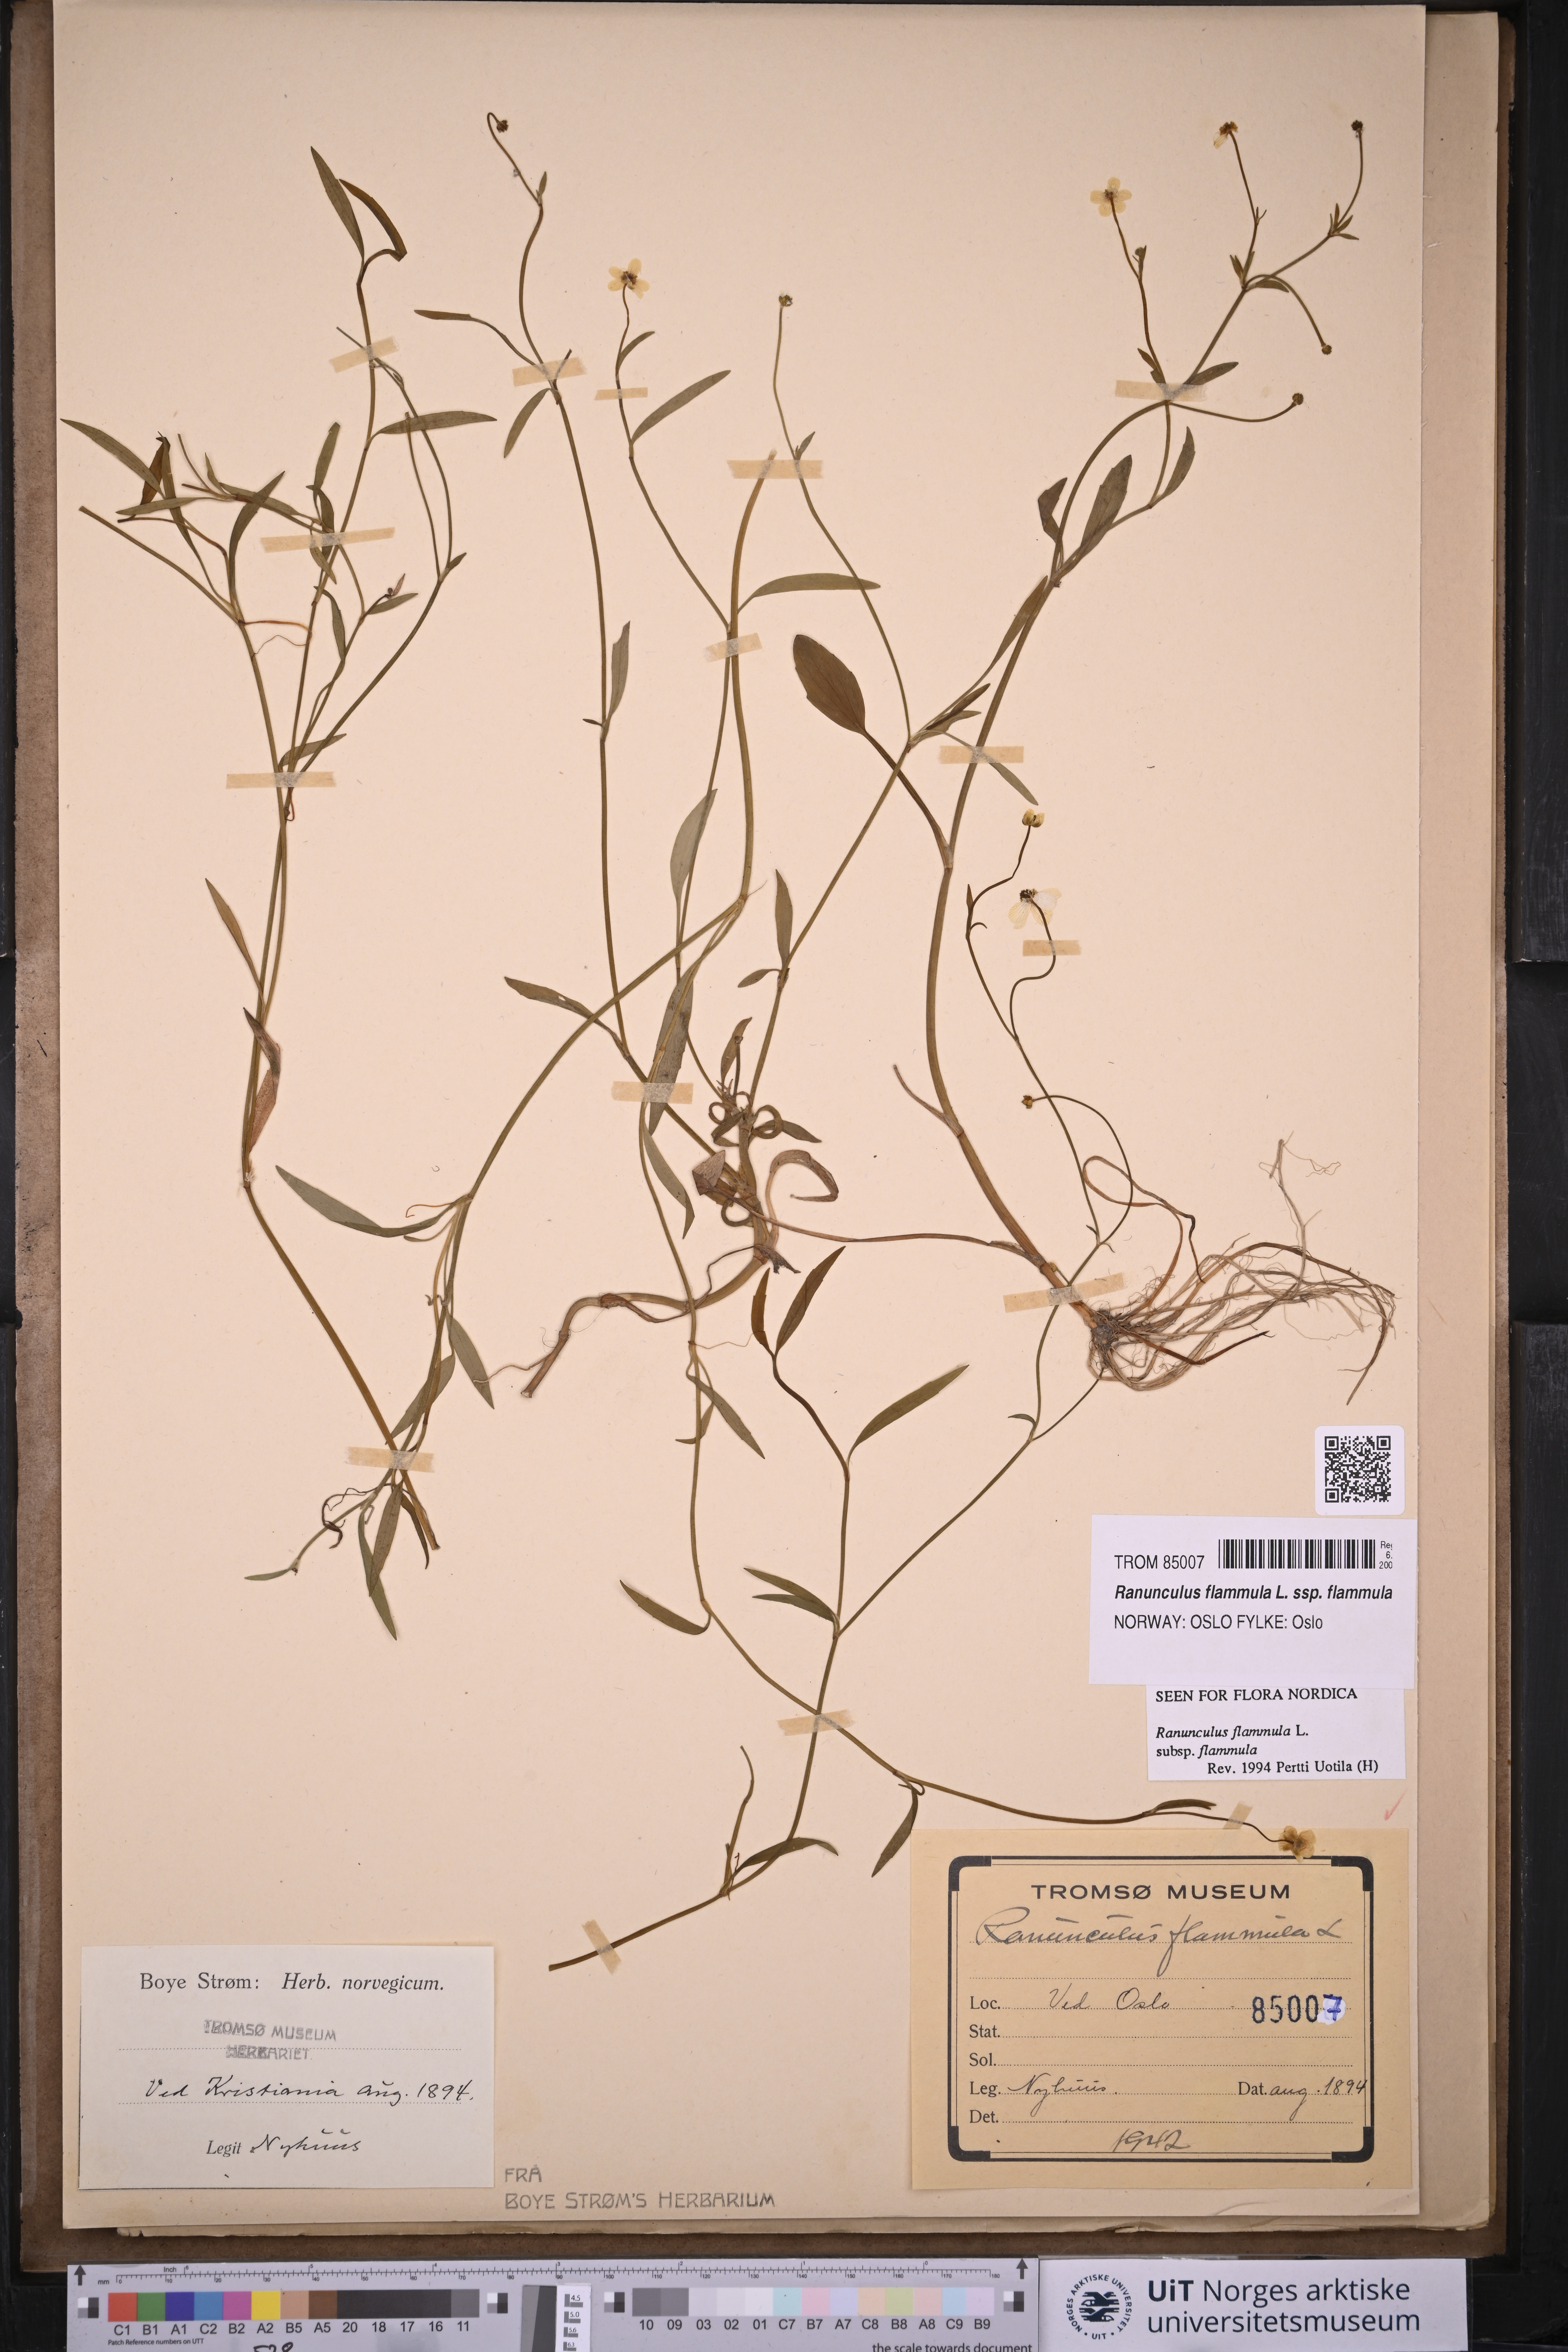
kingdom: Plantae
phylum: Tracheophyta
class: Magnoliopsida
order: Ranunculales
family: Ranunculaceae
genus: Ranunculus
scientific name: Ranunculus flammula
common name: Lesser spearwort
